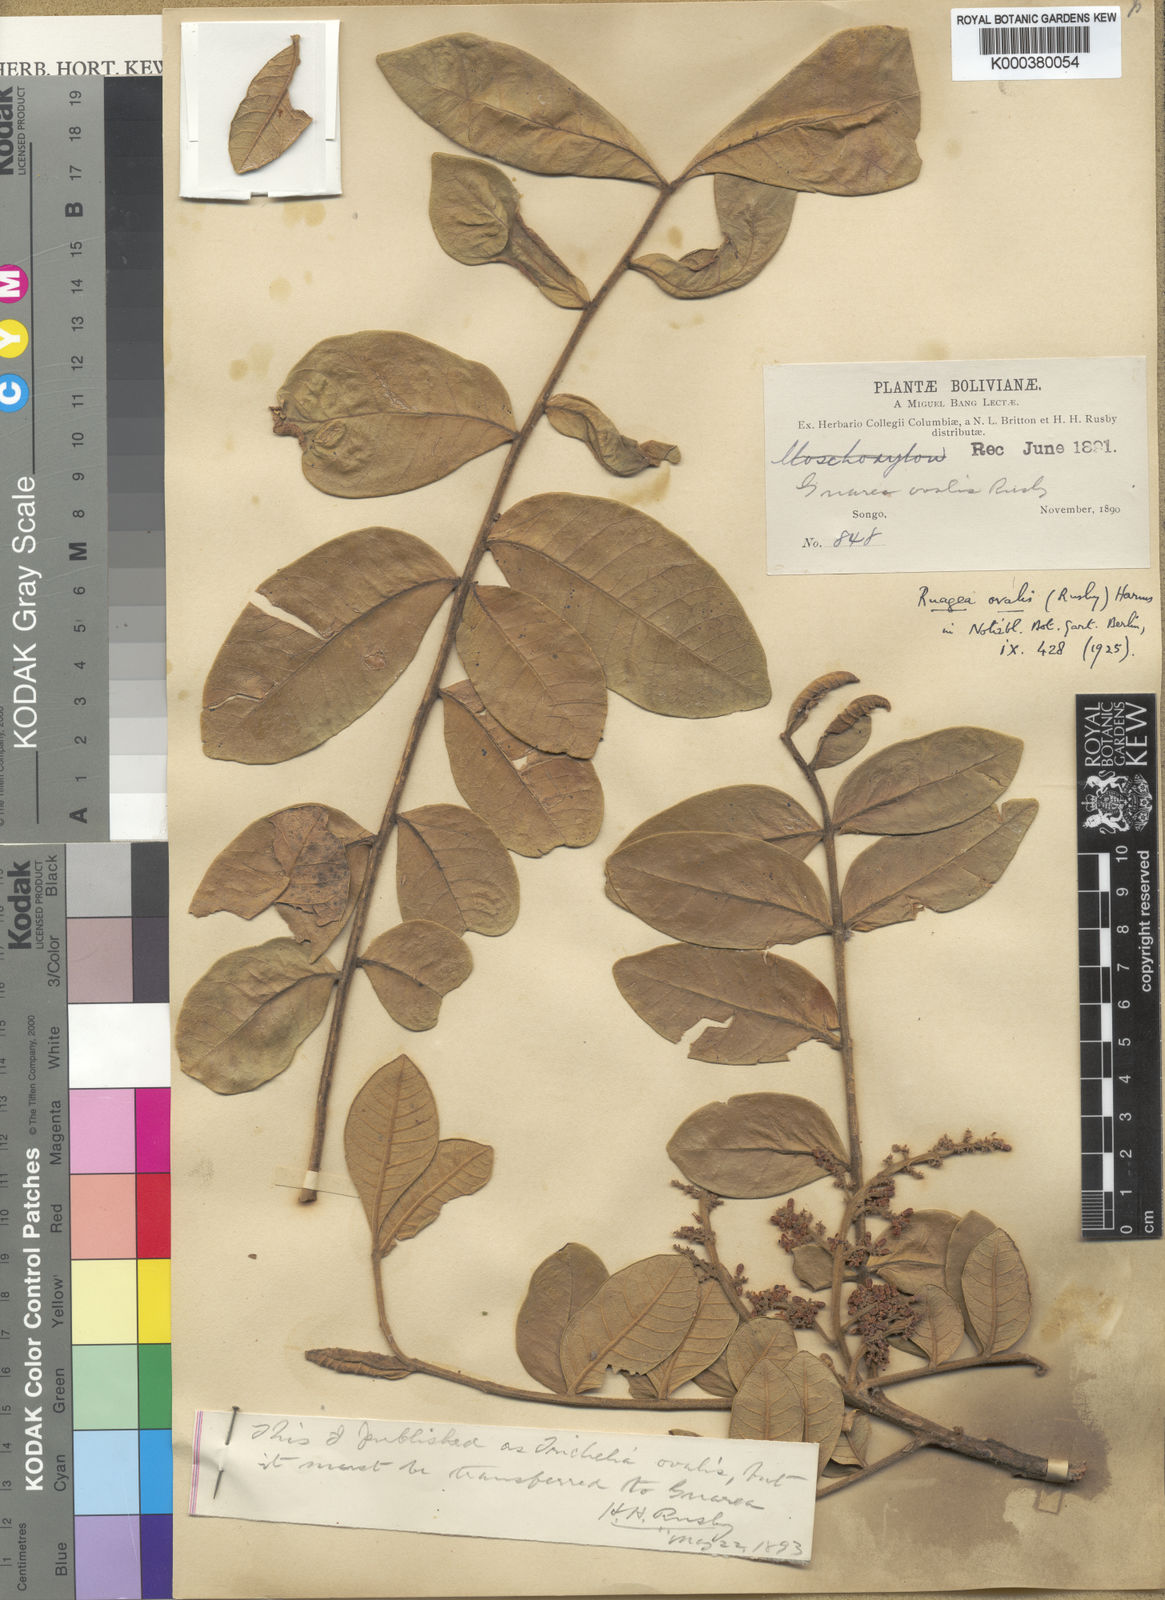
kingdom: Plantae
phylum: Tracheophyta
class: Magnoliopsida
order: Sapindales
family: Meliaceae
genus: Ruagea
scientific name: Ruagea ovalis
